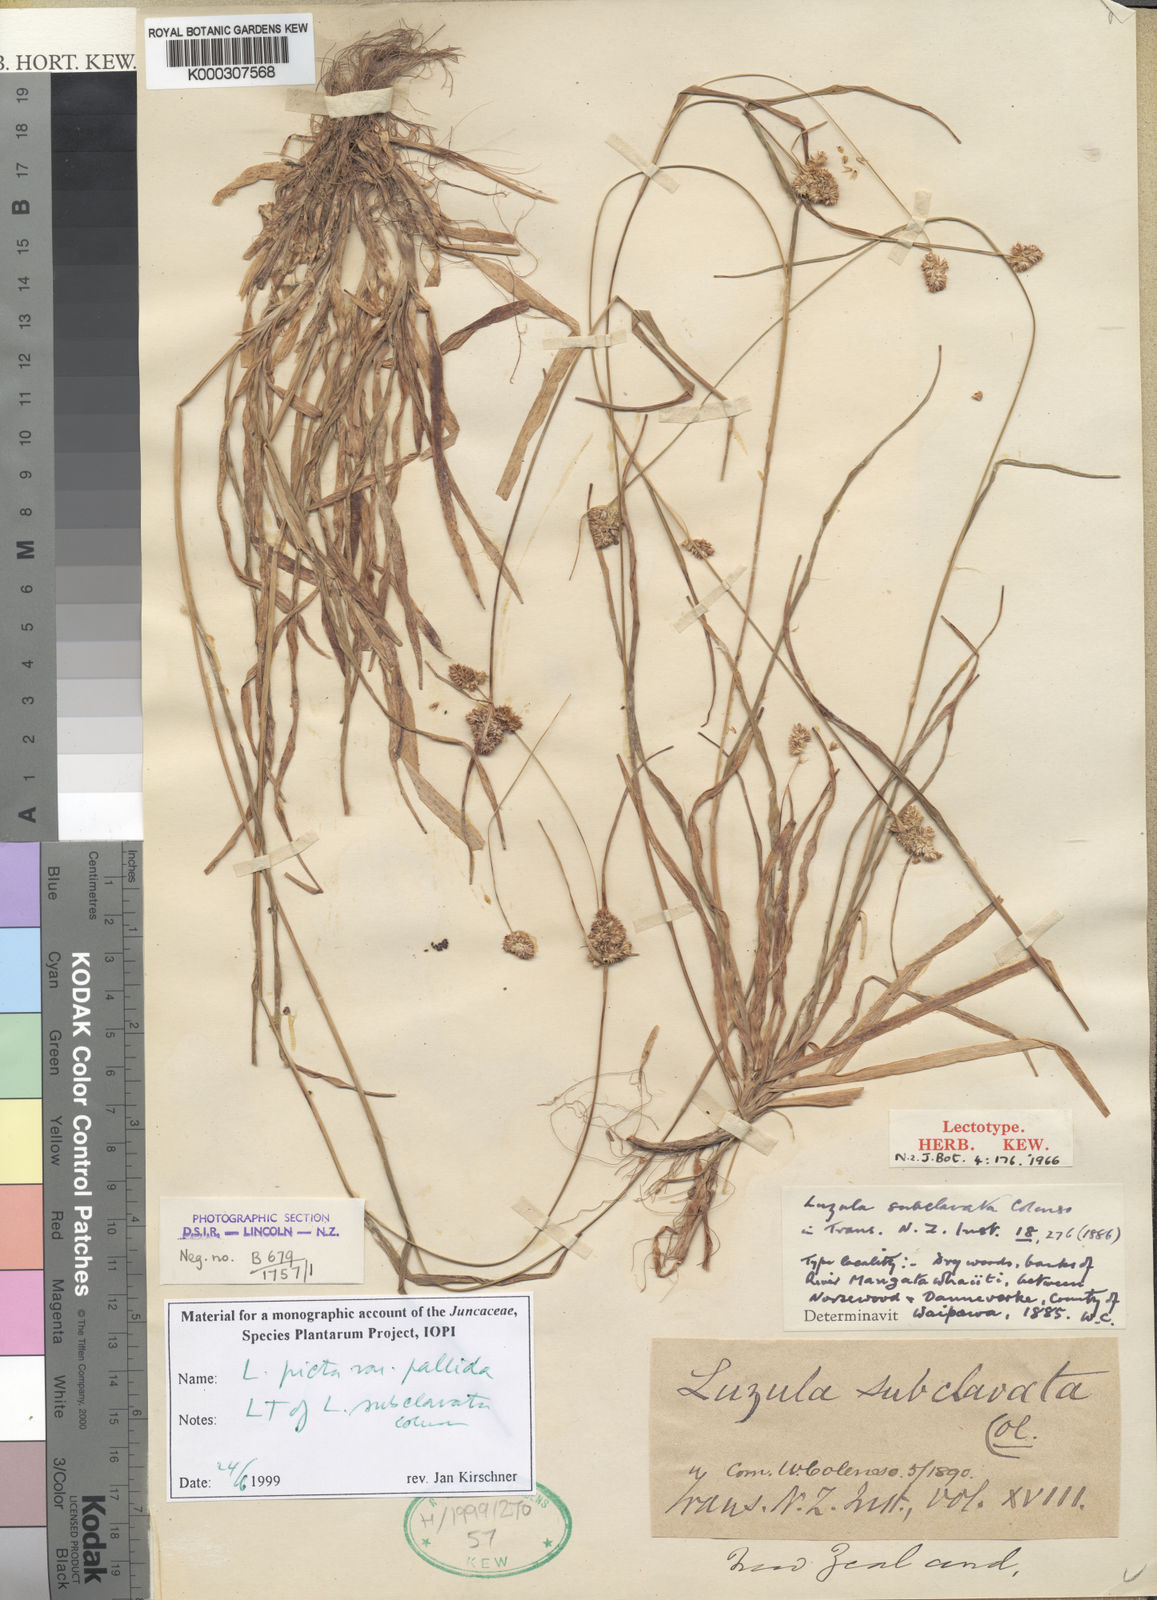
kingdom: Plantae
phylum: Tracheophyta
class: Liliopsida
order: Poales
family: Juncaceae
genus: Luzula
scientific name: Luzula picta
